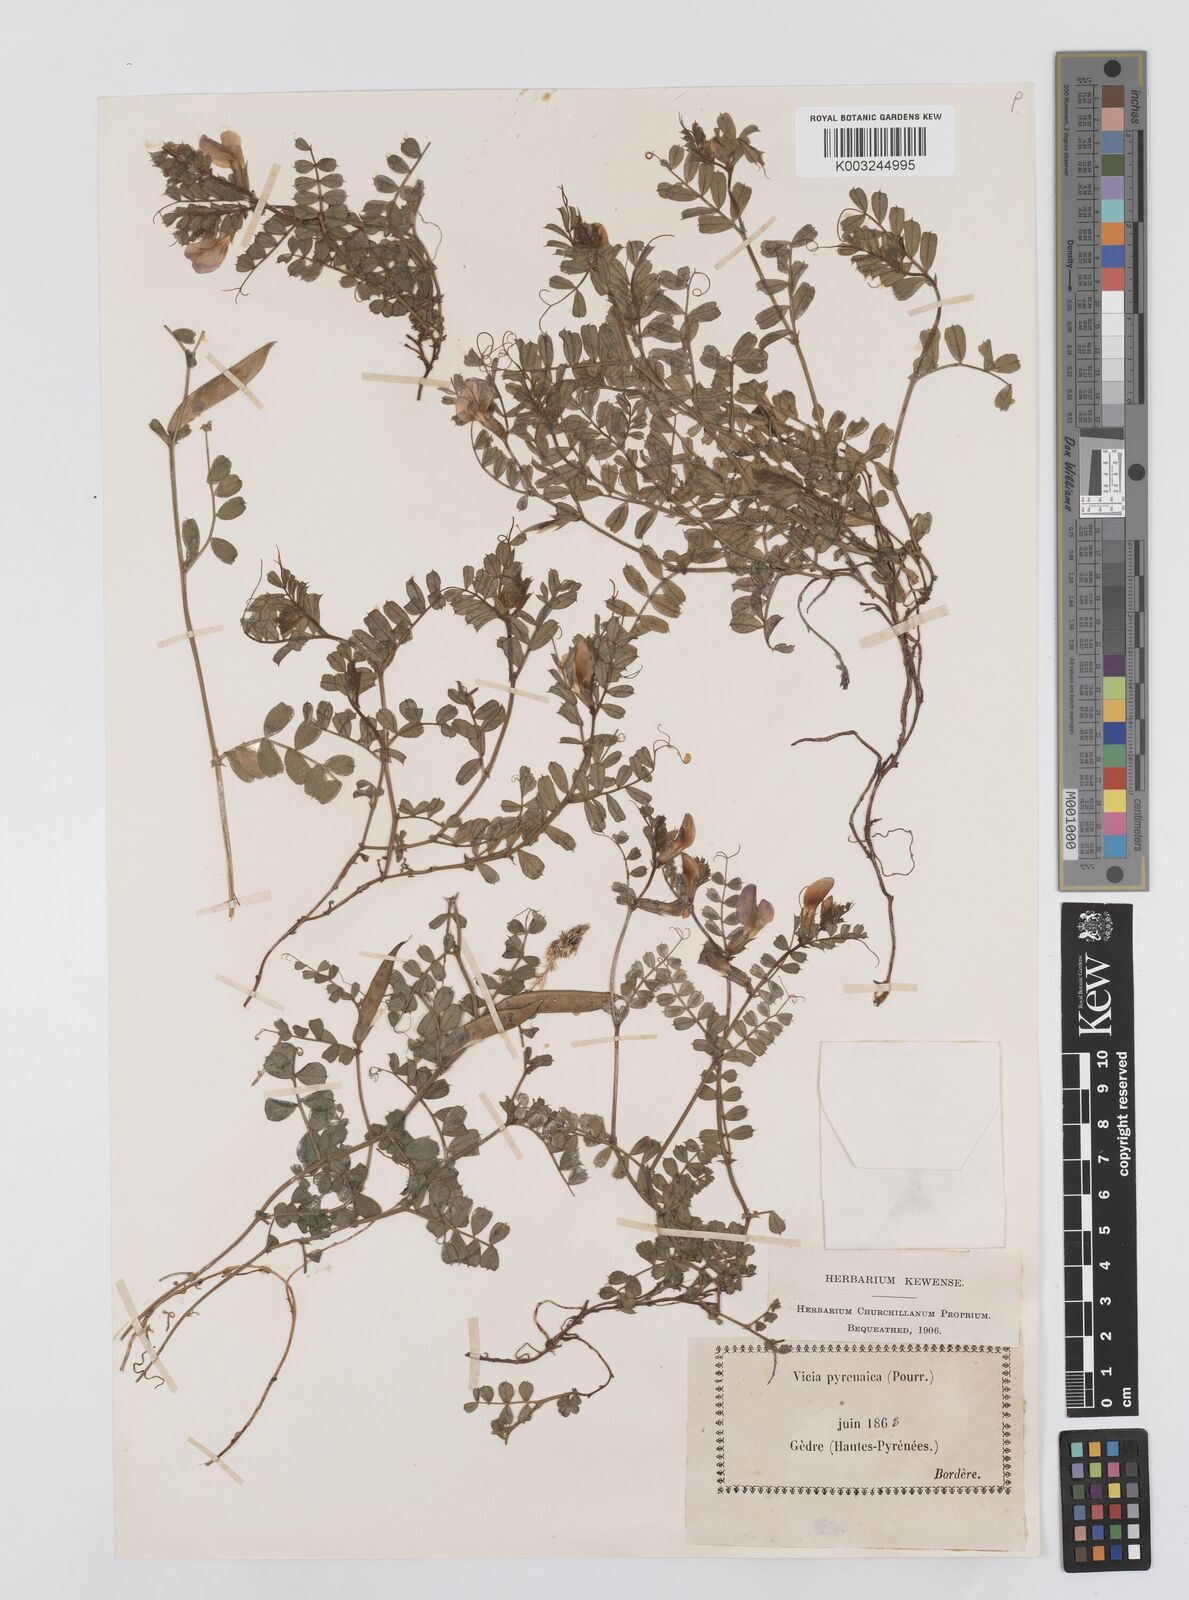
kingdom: Plantae
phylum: Tracheophyta
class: Magnoliopsida
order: Fabales
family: Fabaceae
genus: Vicia
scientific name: Vicia pyrenaica
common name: Pyrenean vetch
